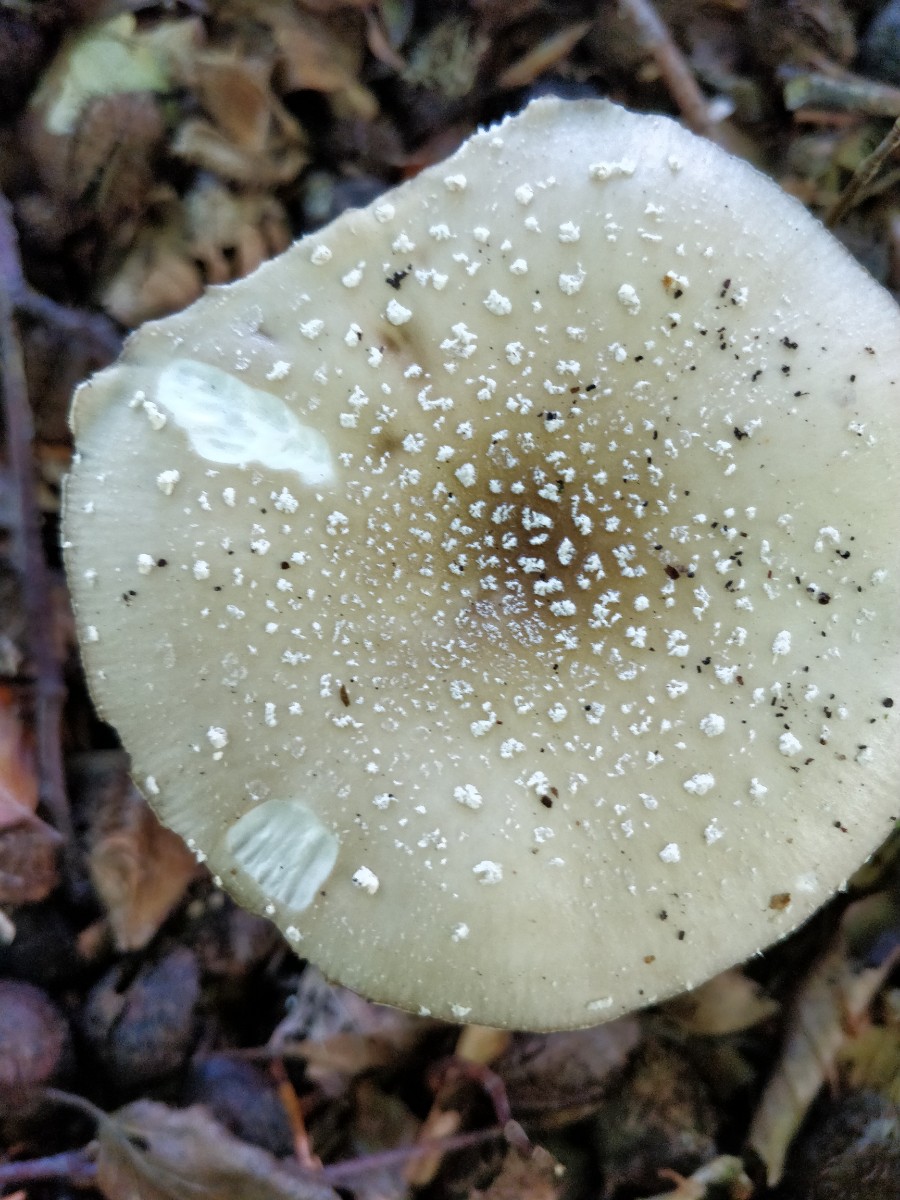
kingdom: Fungi
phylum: Basidiomycota
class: Agaricomycetes
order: Agaricales
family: Amanitaceae
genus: Amanita
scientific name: Amanita pantherina
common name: panter-fluesvamp
